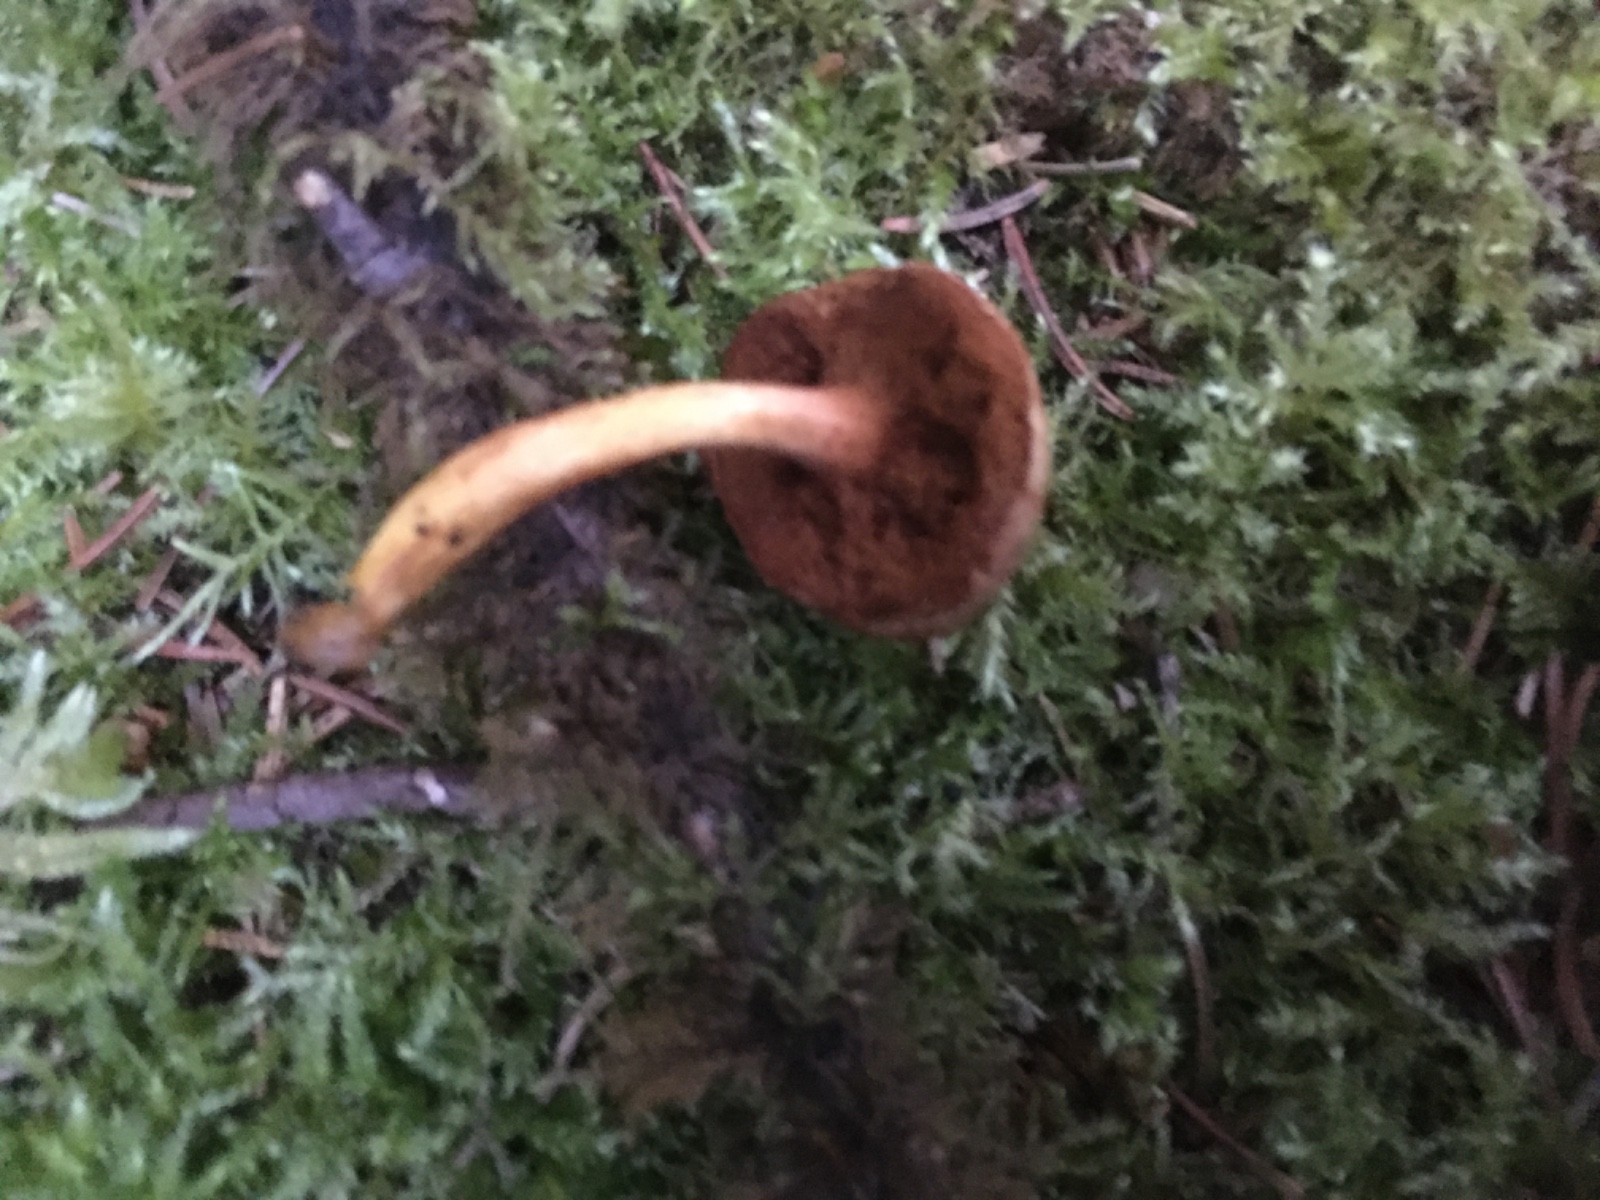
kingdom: Fungi
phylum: Basidiomycota
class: Agaricomycetes
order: Boletales
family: Boletaceae
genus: Chalciporus
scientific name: Chalciporus piperatus
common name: peberrørhat
